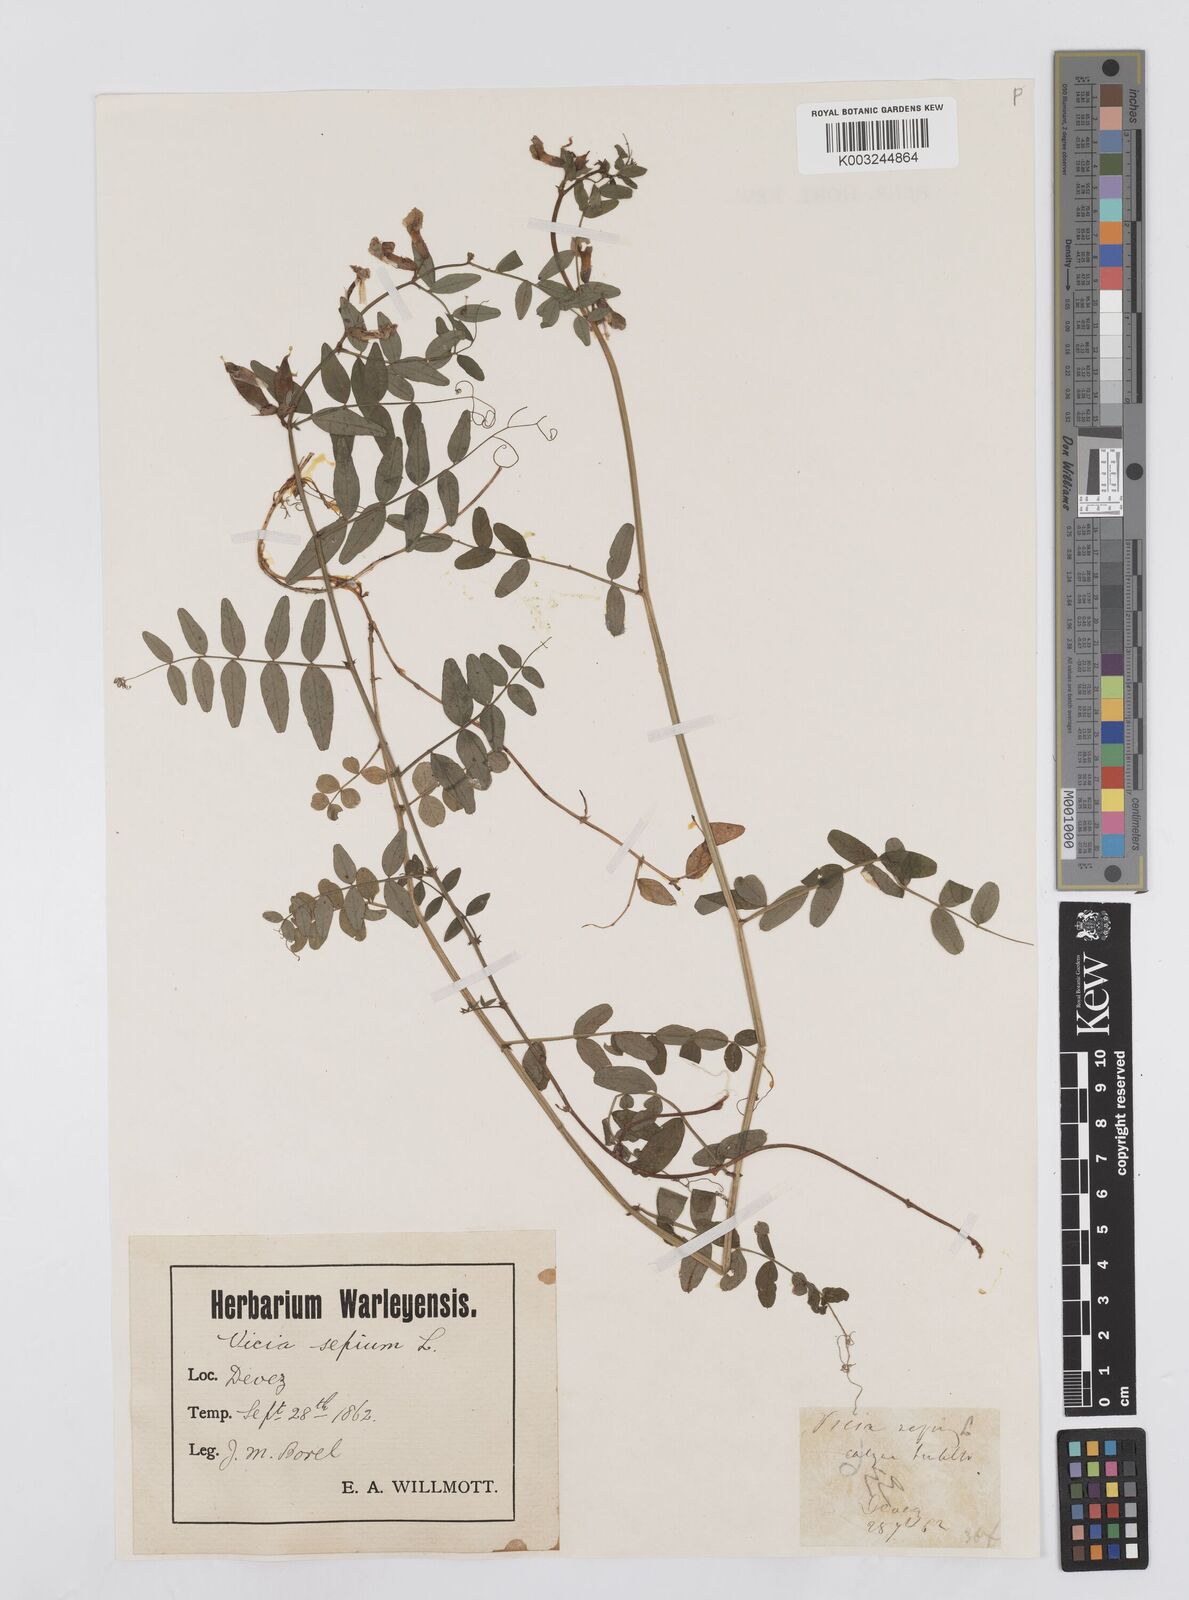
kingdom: Plantae
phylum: Tracheophyta
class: Magnoliopsida
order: Fabales
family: Fabaceae
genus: Vicia
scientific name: Vicia sepium
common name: Bush vetch
